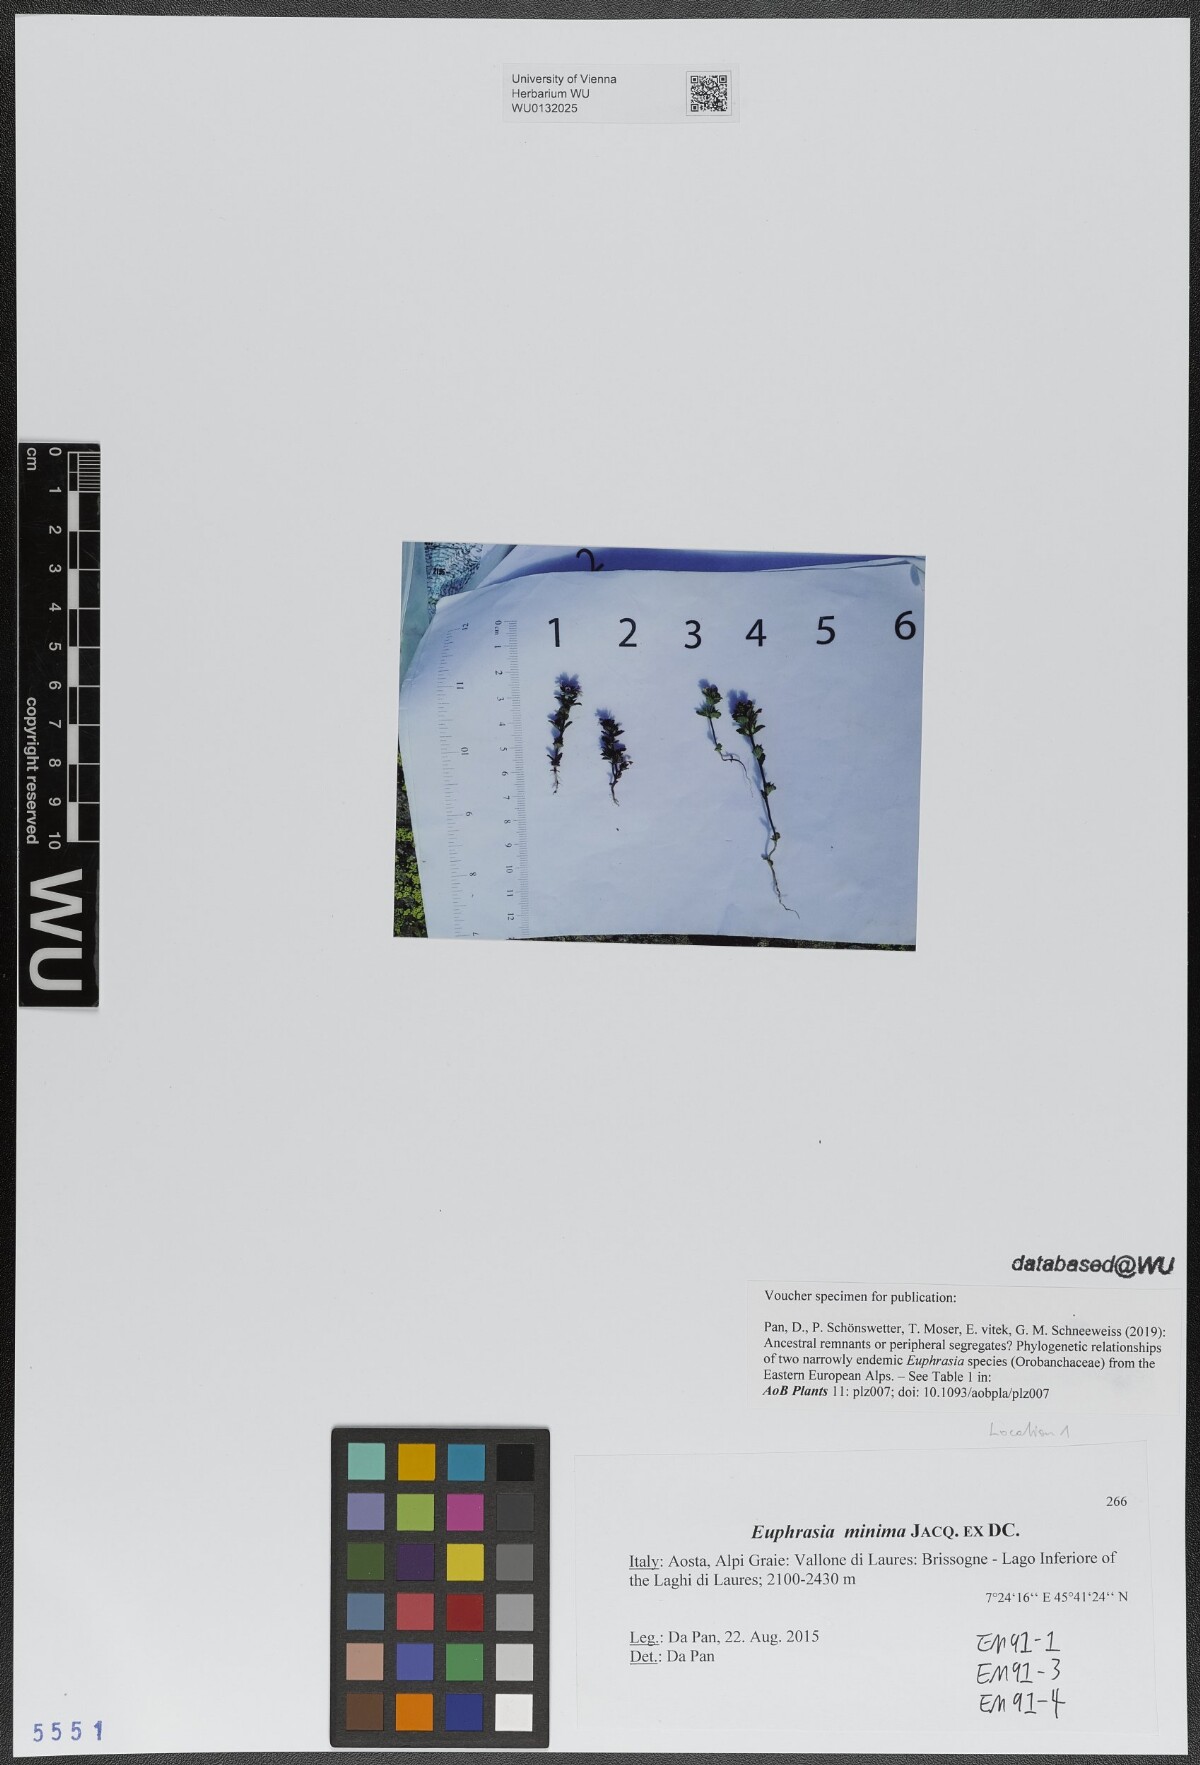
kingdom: Plantae
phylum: Tracheophyta
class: Magnoliopsida
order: Lamiales
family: Orobanchaceae
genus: Euphrasia
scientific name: Euphrasia minima
